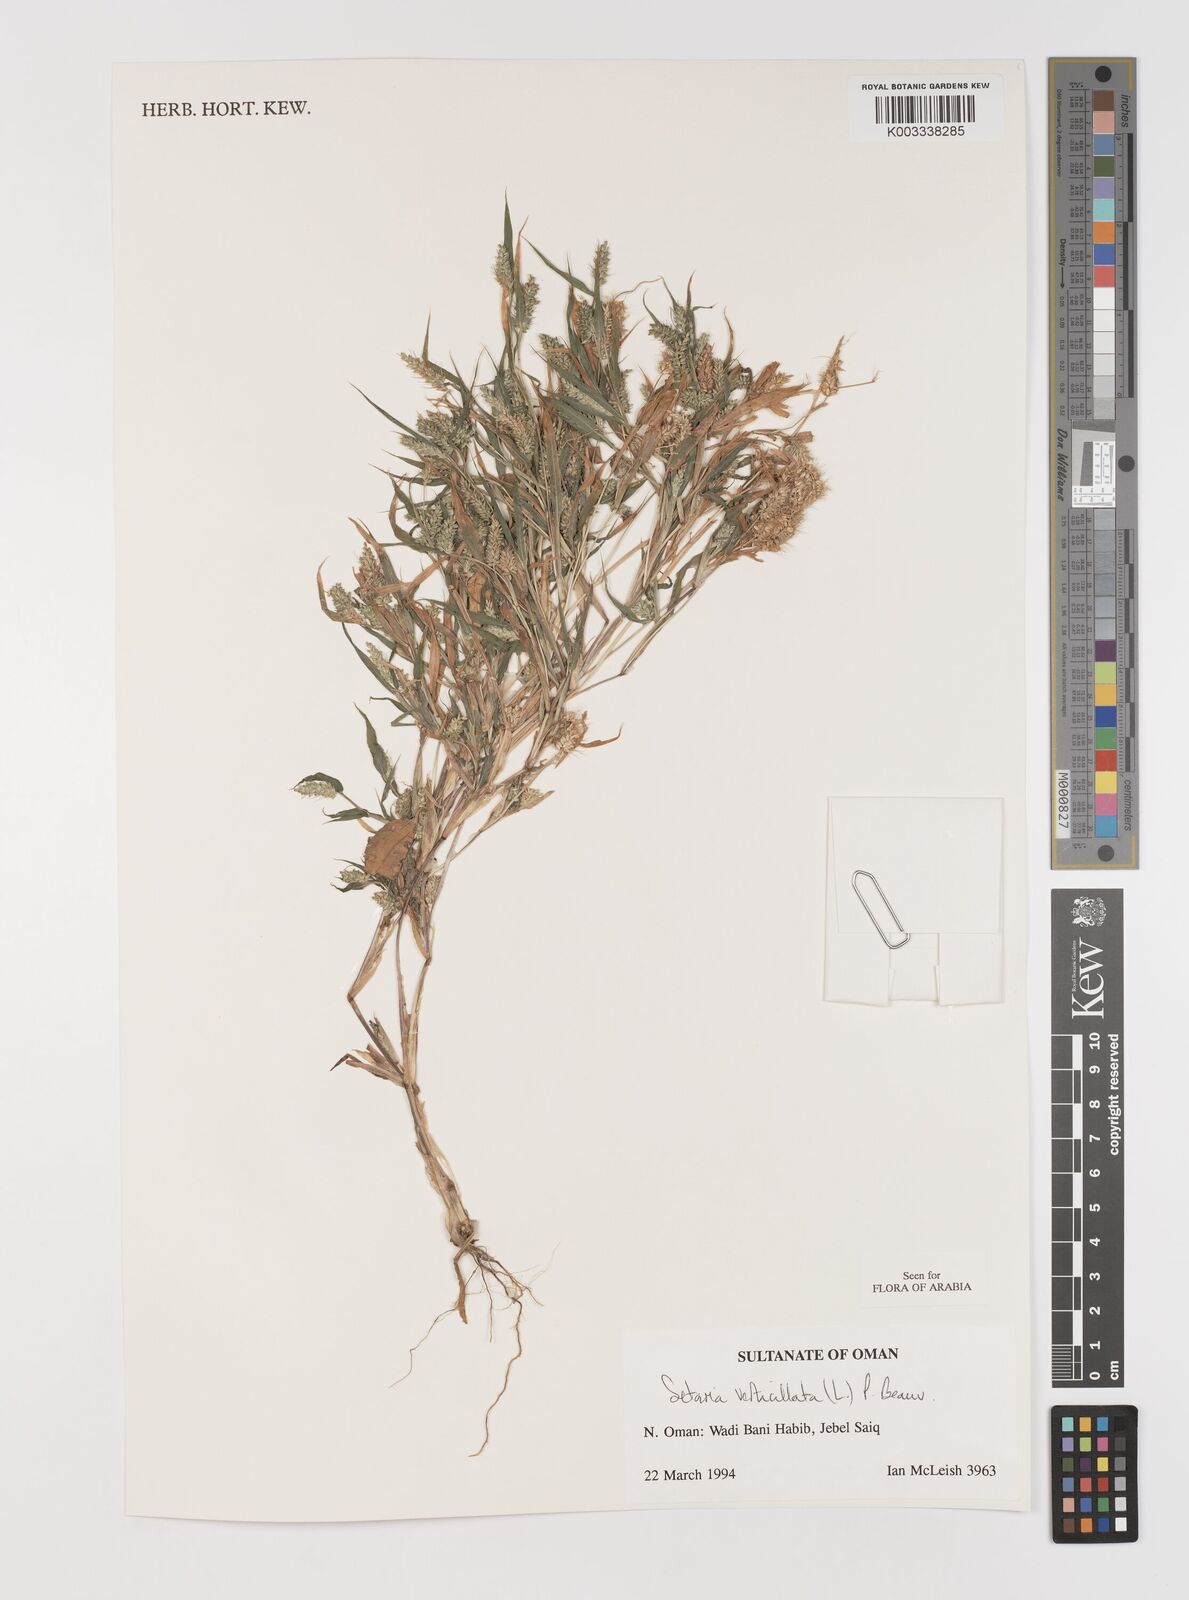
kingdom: Plantae
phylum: Tracheophyta
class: Liliopsida
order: Poales
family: Poaceae
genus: Setaria
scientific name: Setaria verticillata
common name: Hooked bristlegrass
